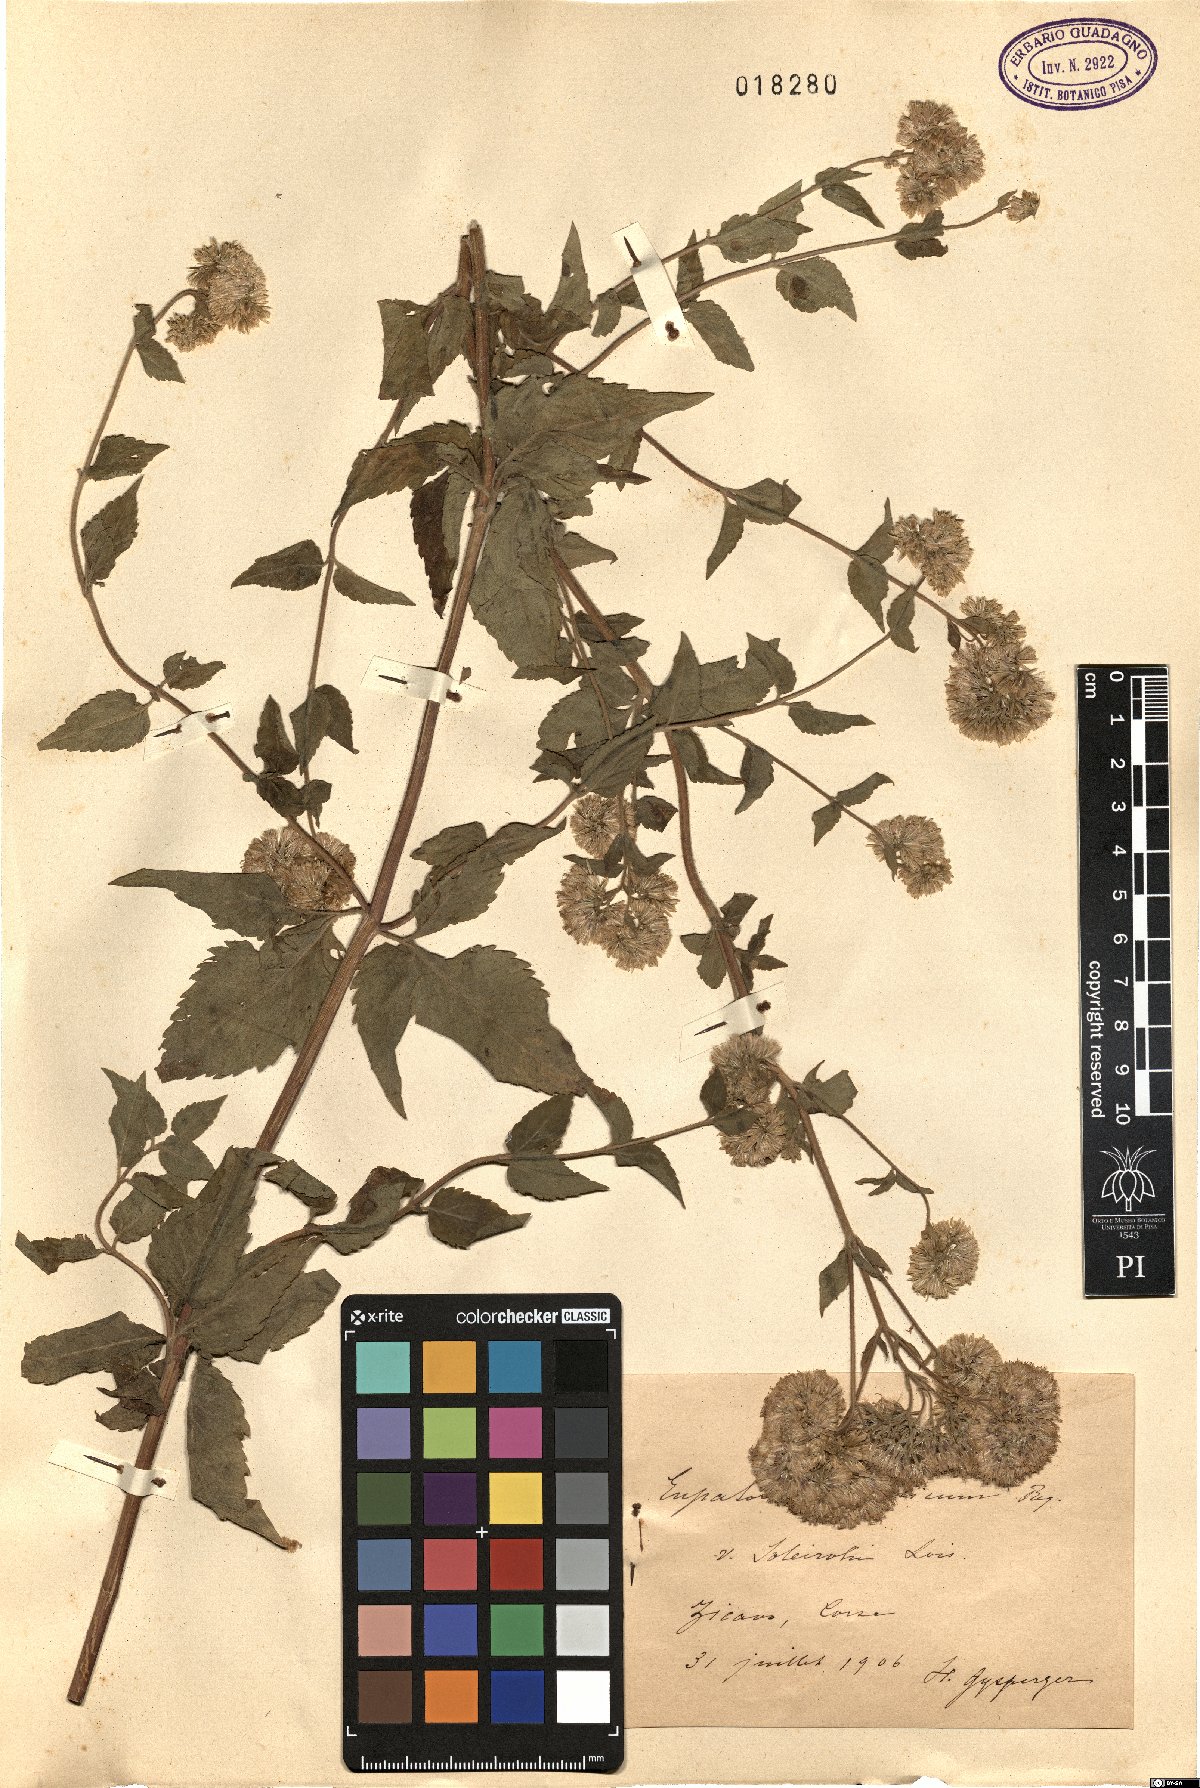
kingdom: Plantae
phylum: Tracheophyta
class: Magnoliopsida
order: Asterales
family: Asteraceae
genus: Eupatorium
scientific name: Eupatorium cannabinum
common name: Hemp-agrimony
